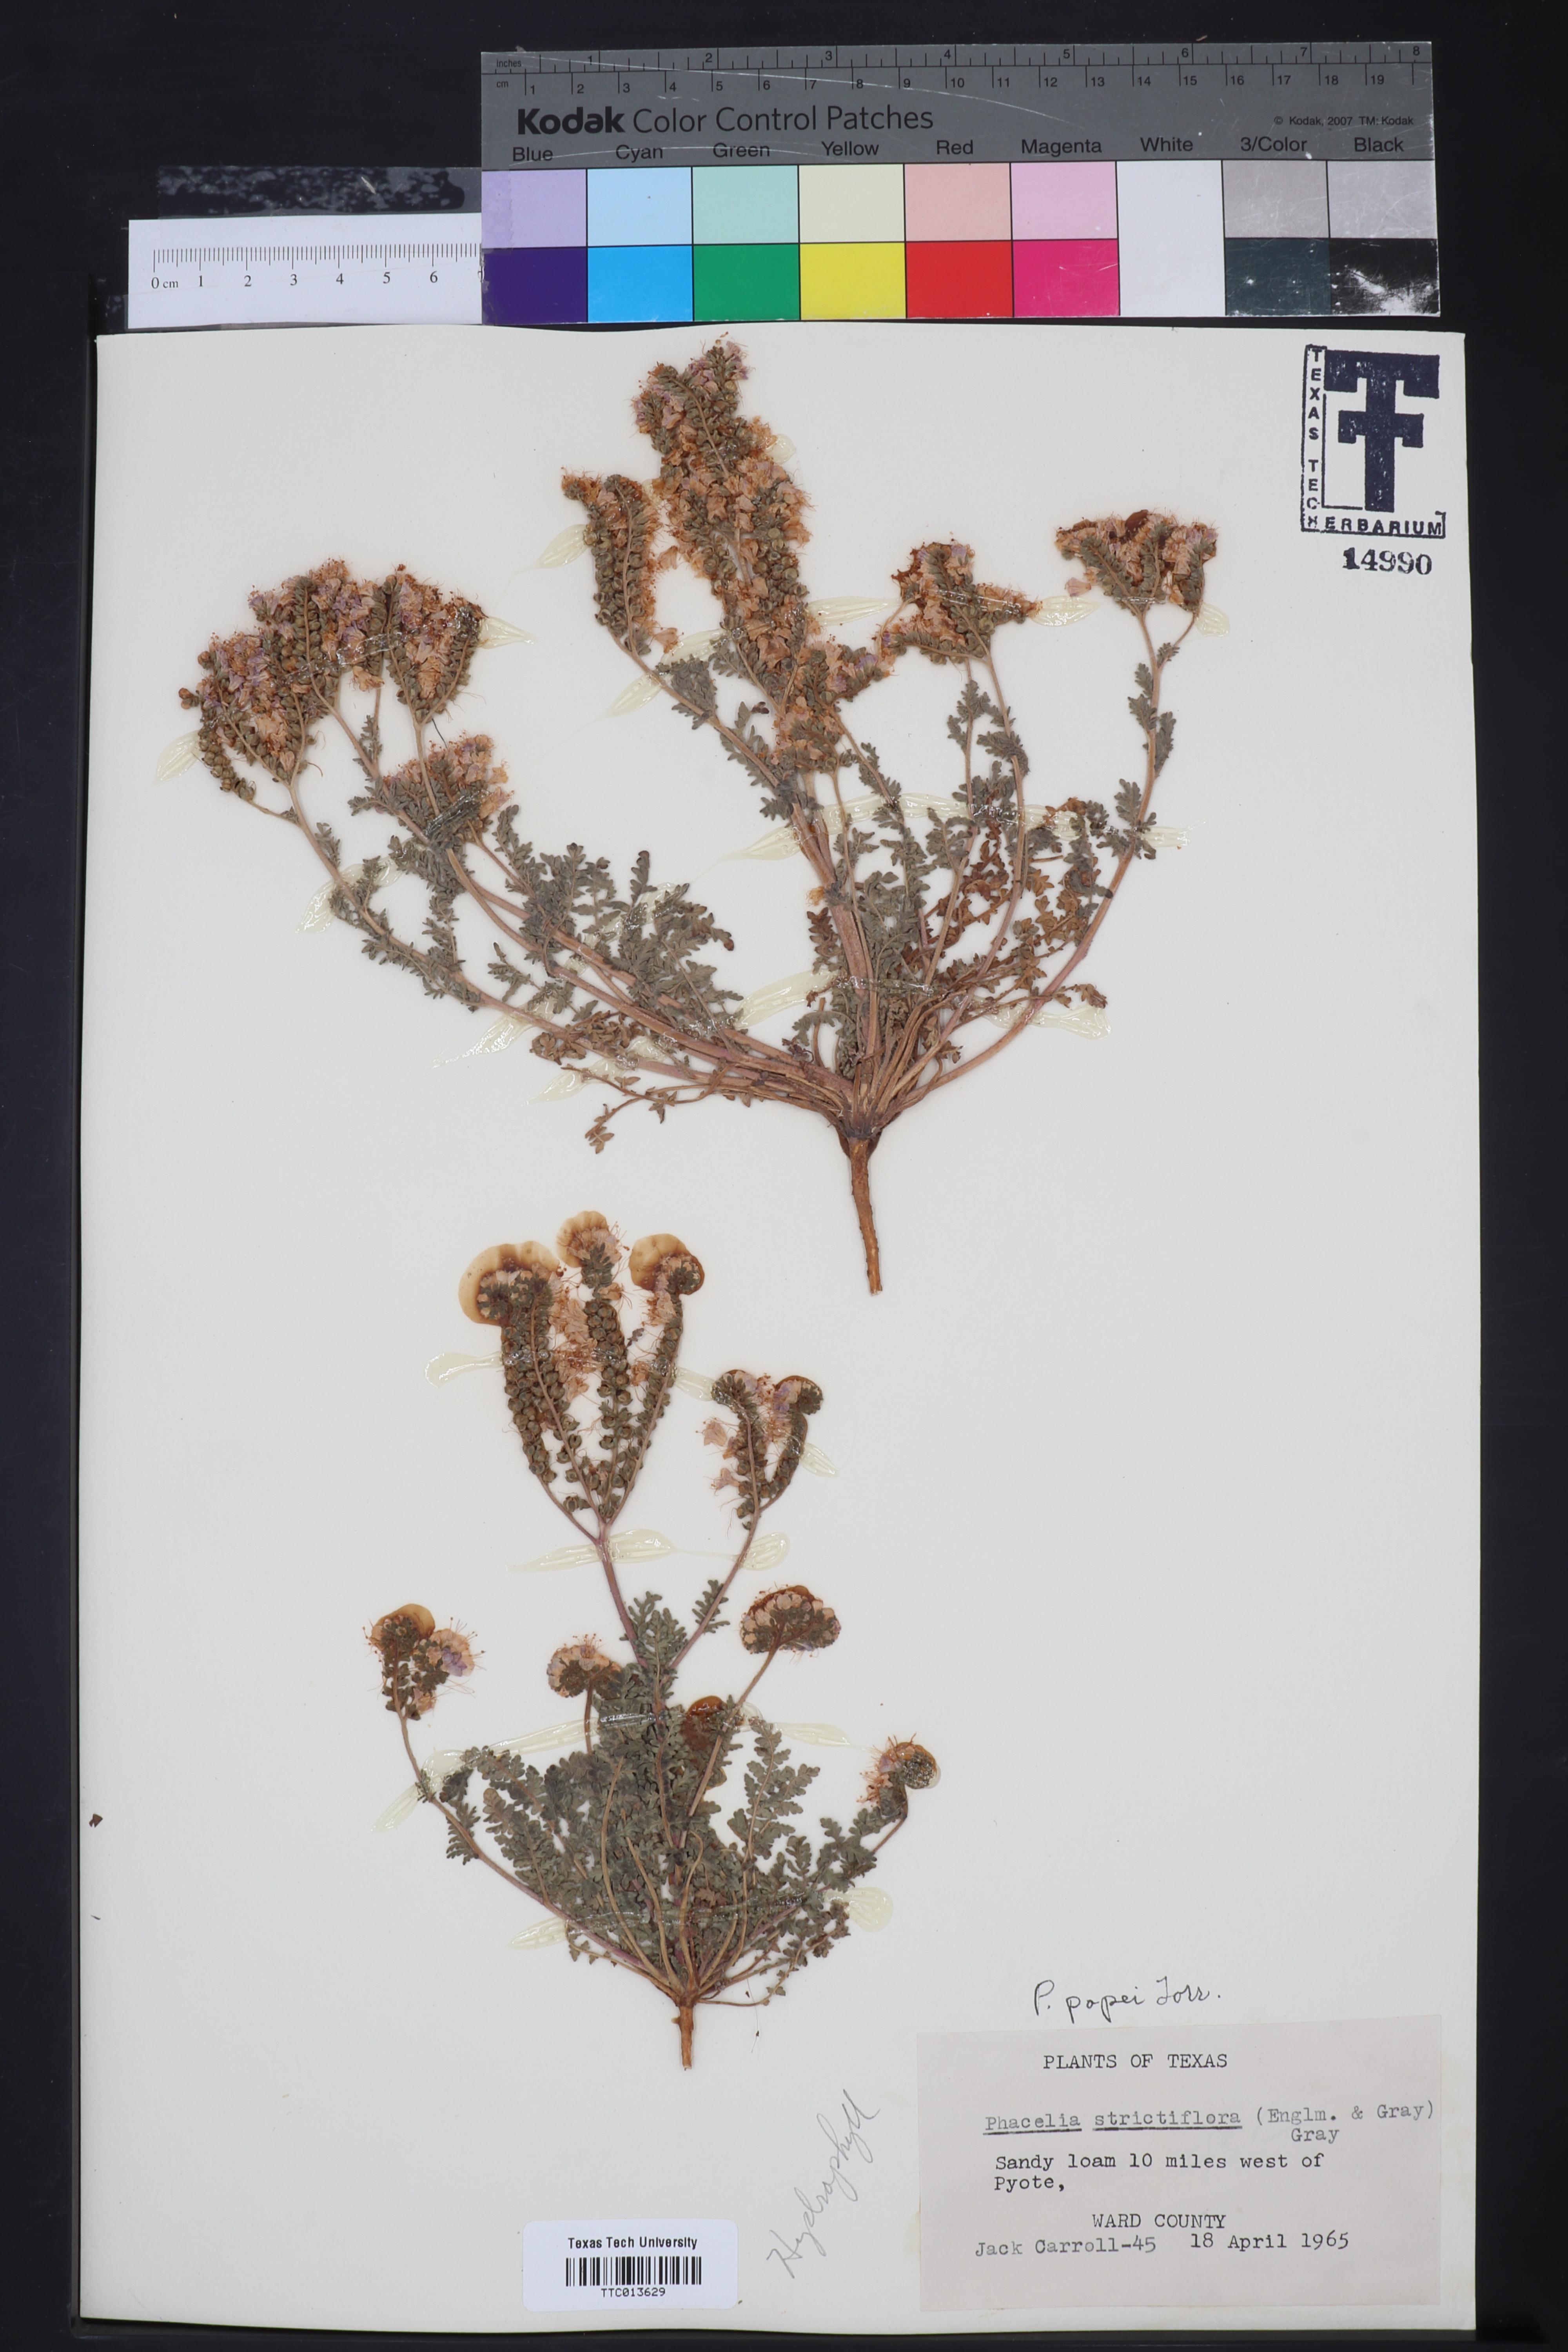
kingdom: Plantae
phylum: Tracheophyta
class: Magnoliopsida
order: Boraginales
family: Hydrophyllaceae
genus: Phacelia
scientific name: Phacelia popei
